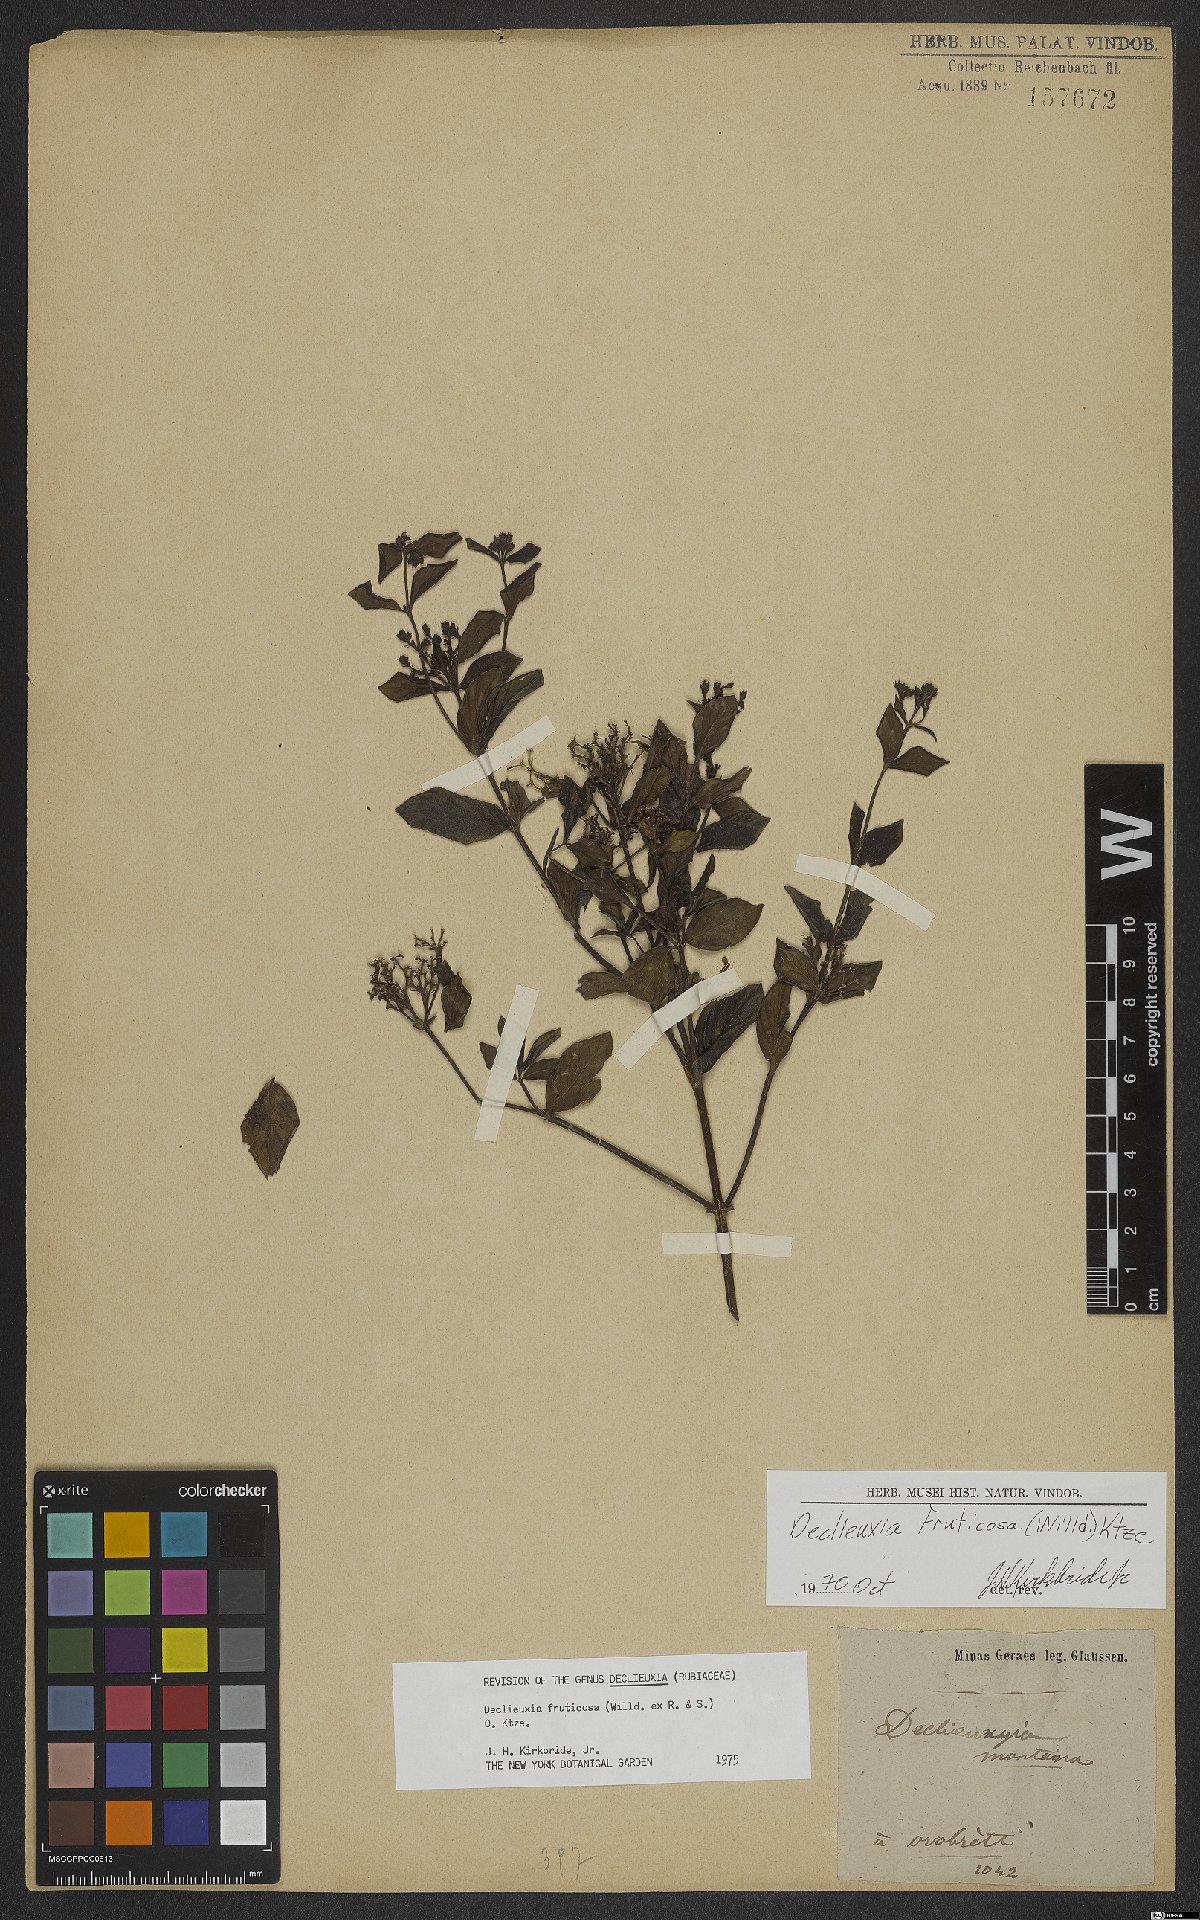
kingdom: Plantae
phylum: Tracheophyta
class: Magnoliopsida
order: Gentianales
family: Rubiaceae
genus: Declieuxia
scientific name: Declieuxia fruticosa
